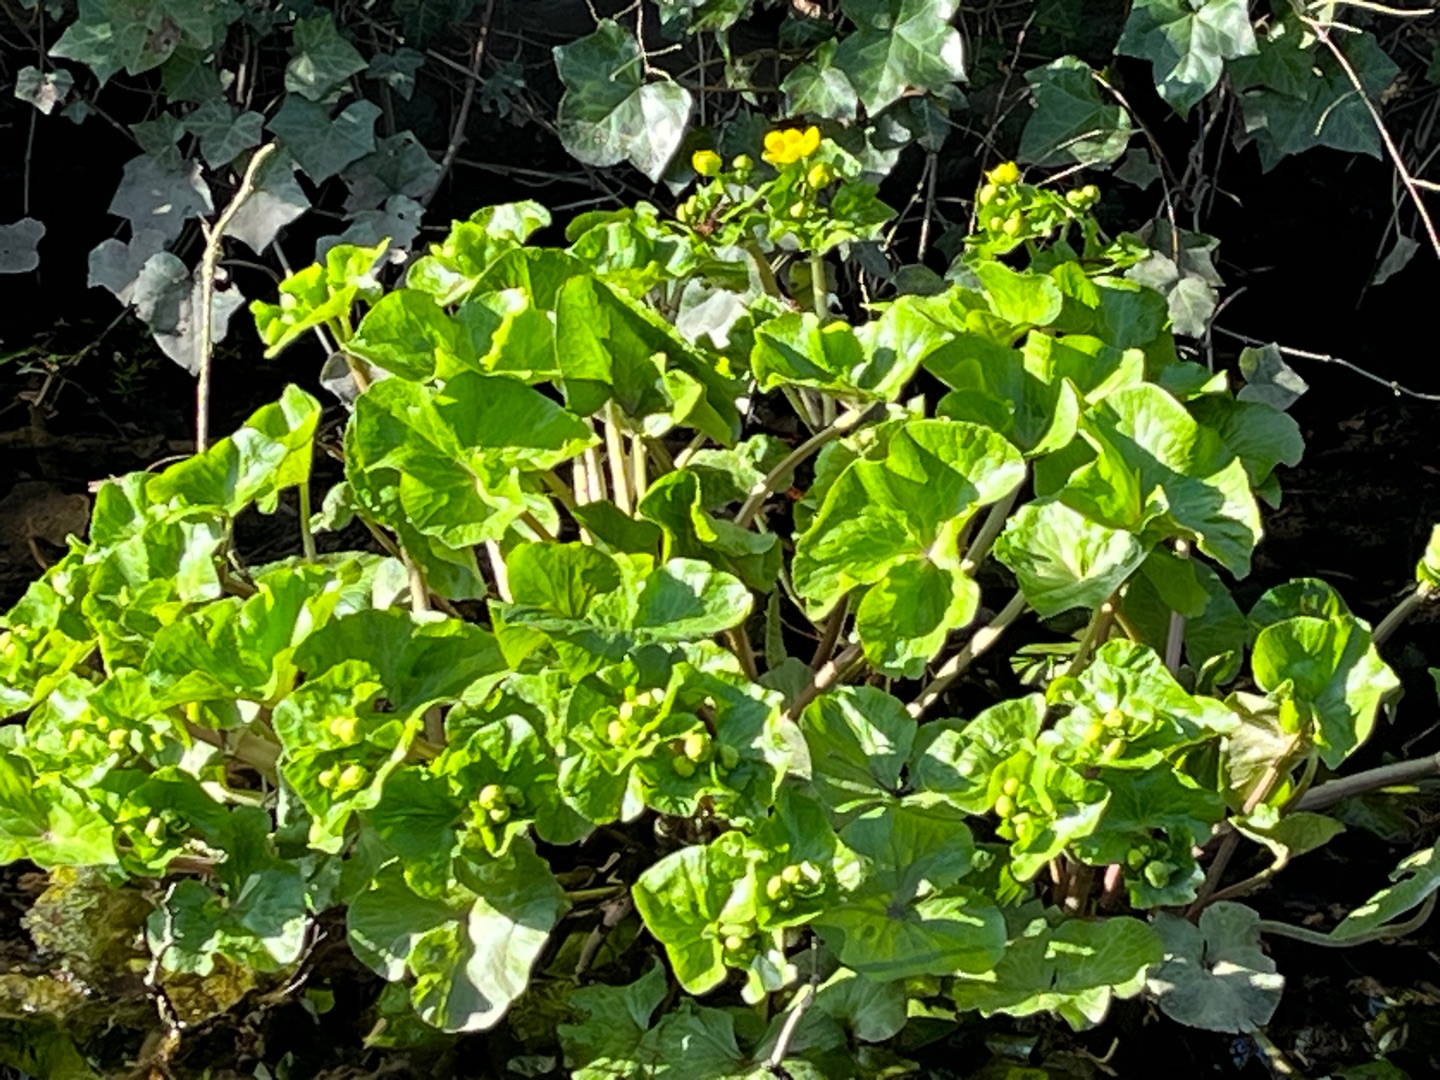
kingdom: Plantae
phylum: Tracheophyta
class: Magnoliopsida
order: Ranunculales
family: Ranunculaceae
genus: Caltha
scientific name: Caltha palustris
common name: Eng-kabbeleje
